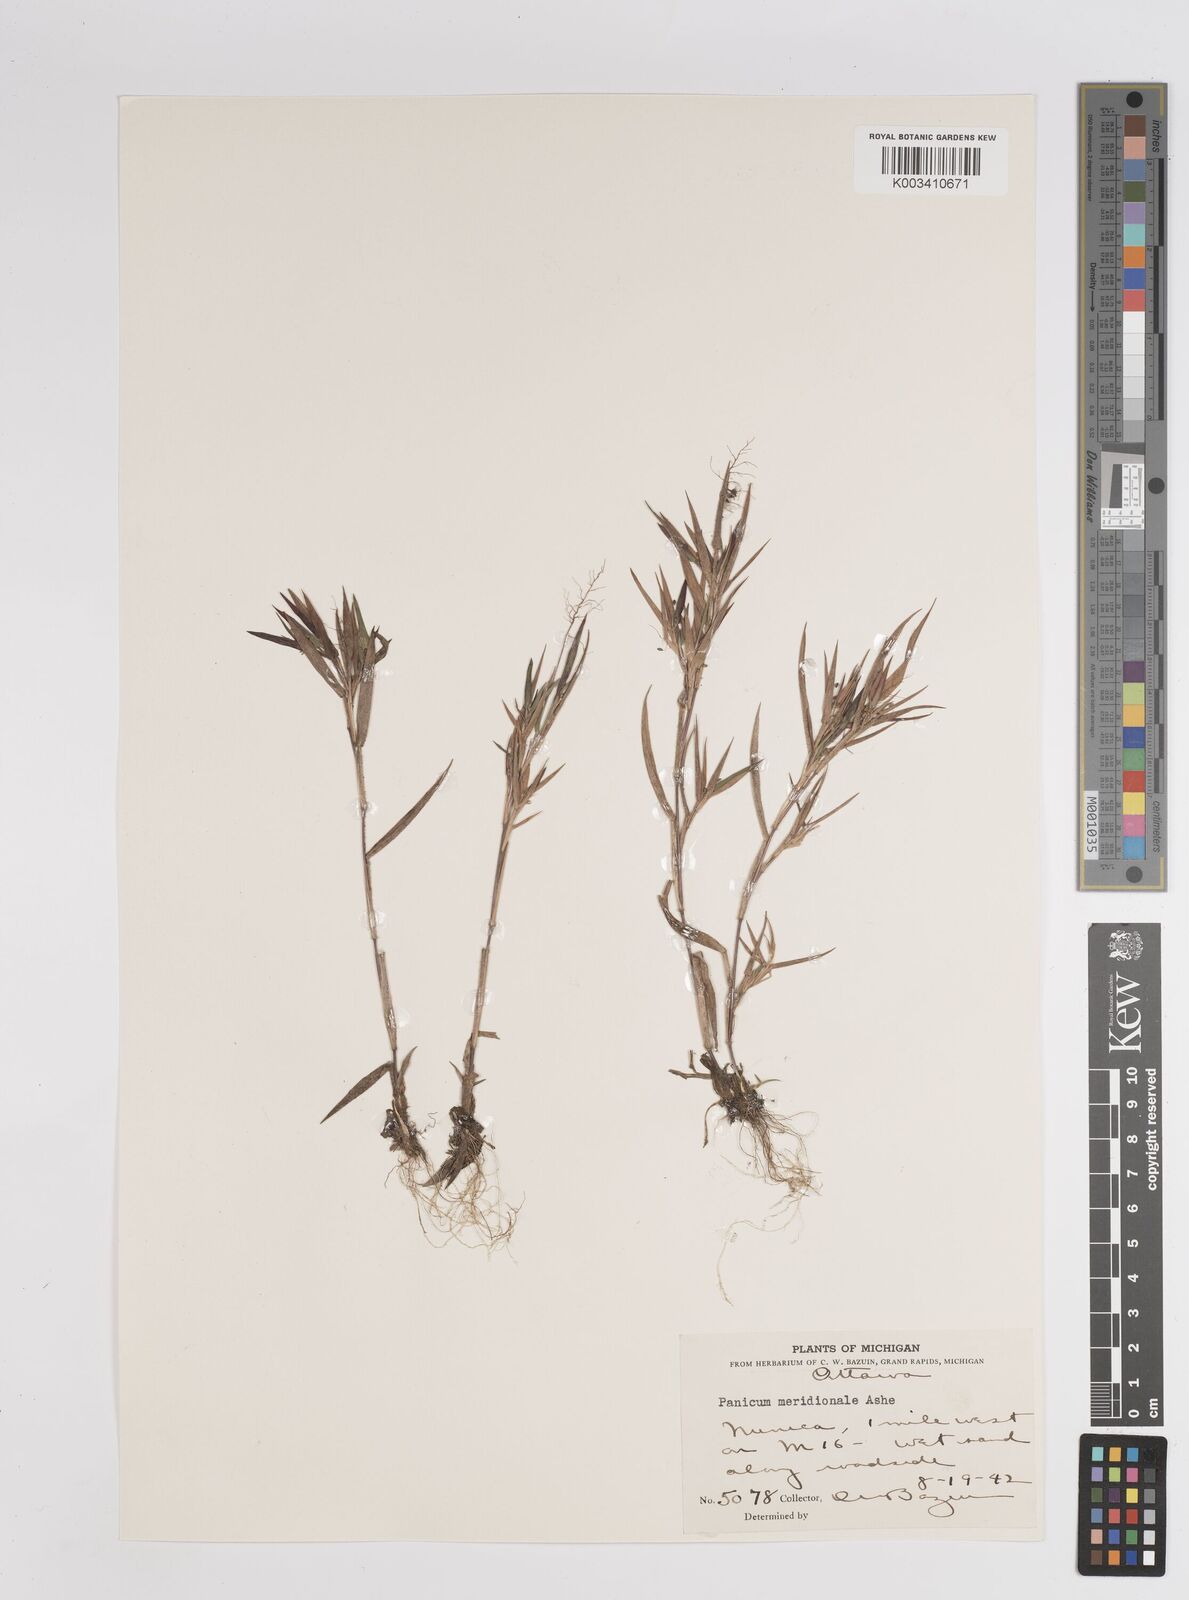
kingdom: Plantae
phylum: Tracheophyta
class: Liliopsida
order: Poales
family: Poaceae
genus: Dichanthelium
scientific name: Dichanthelium meridionale
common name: Mat panicgrass
